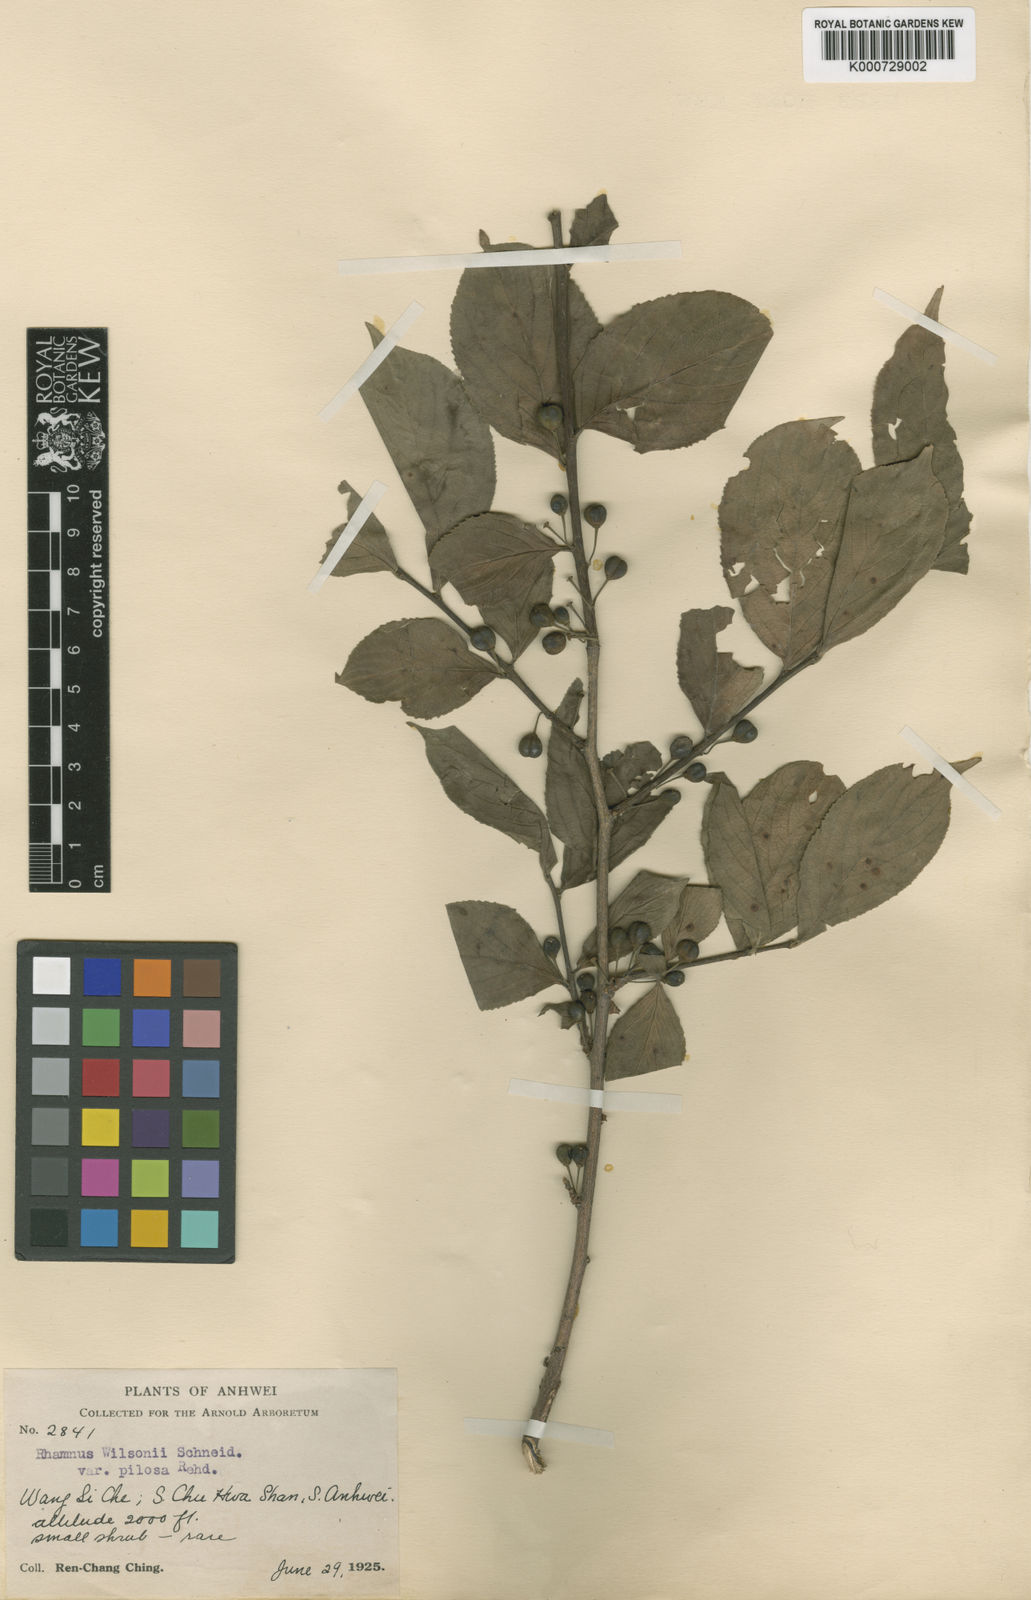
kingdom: Plantae
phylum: Tracheophyta
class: Magnoliopsida
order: Rosales
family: Rhamnaceae
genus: Rhamnus
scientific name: Rhamnus wilsonii
